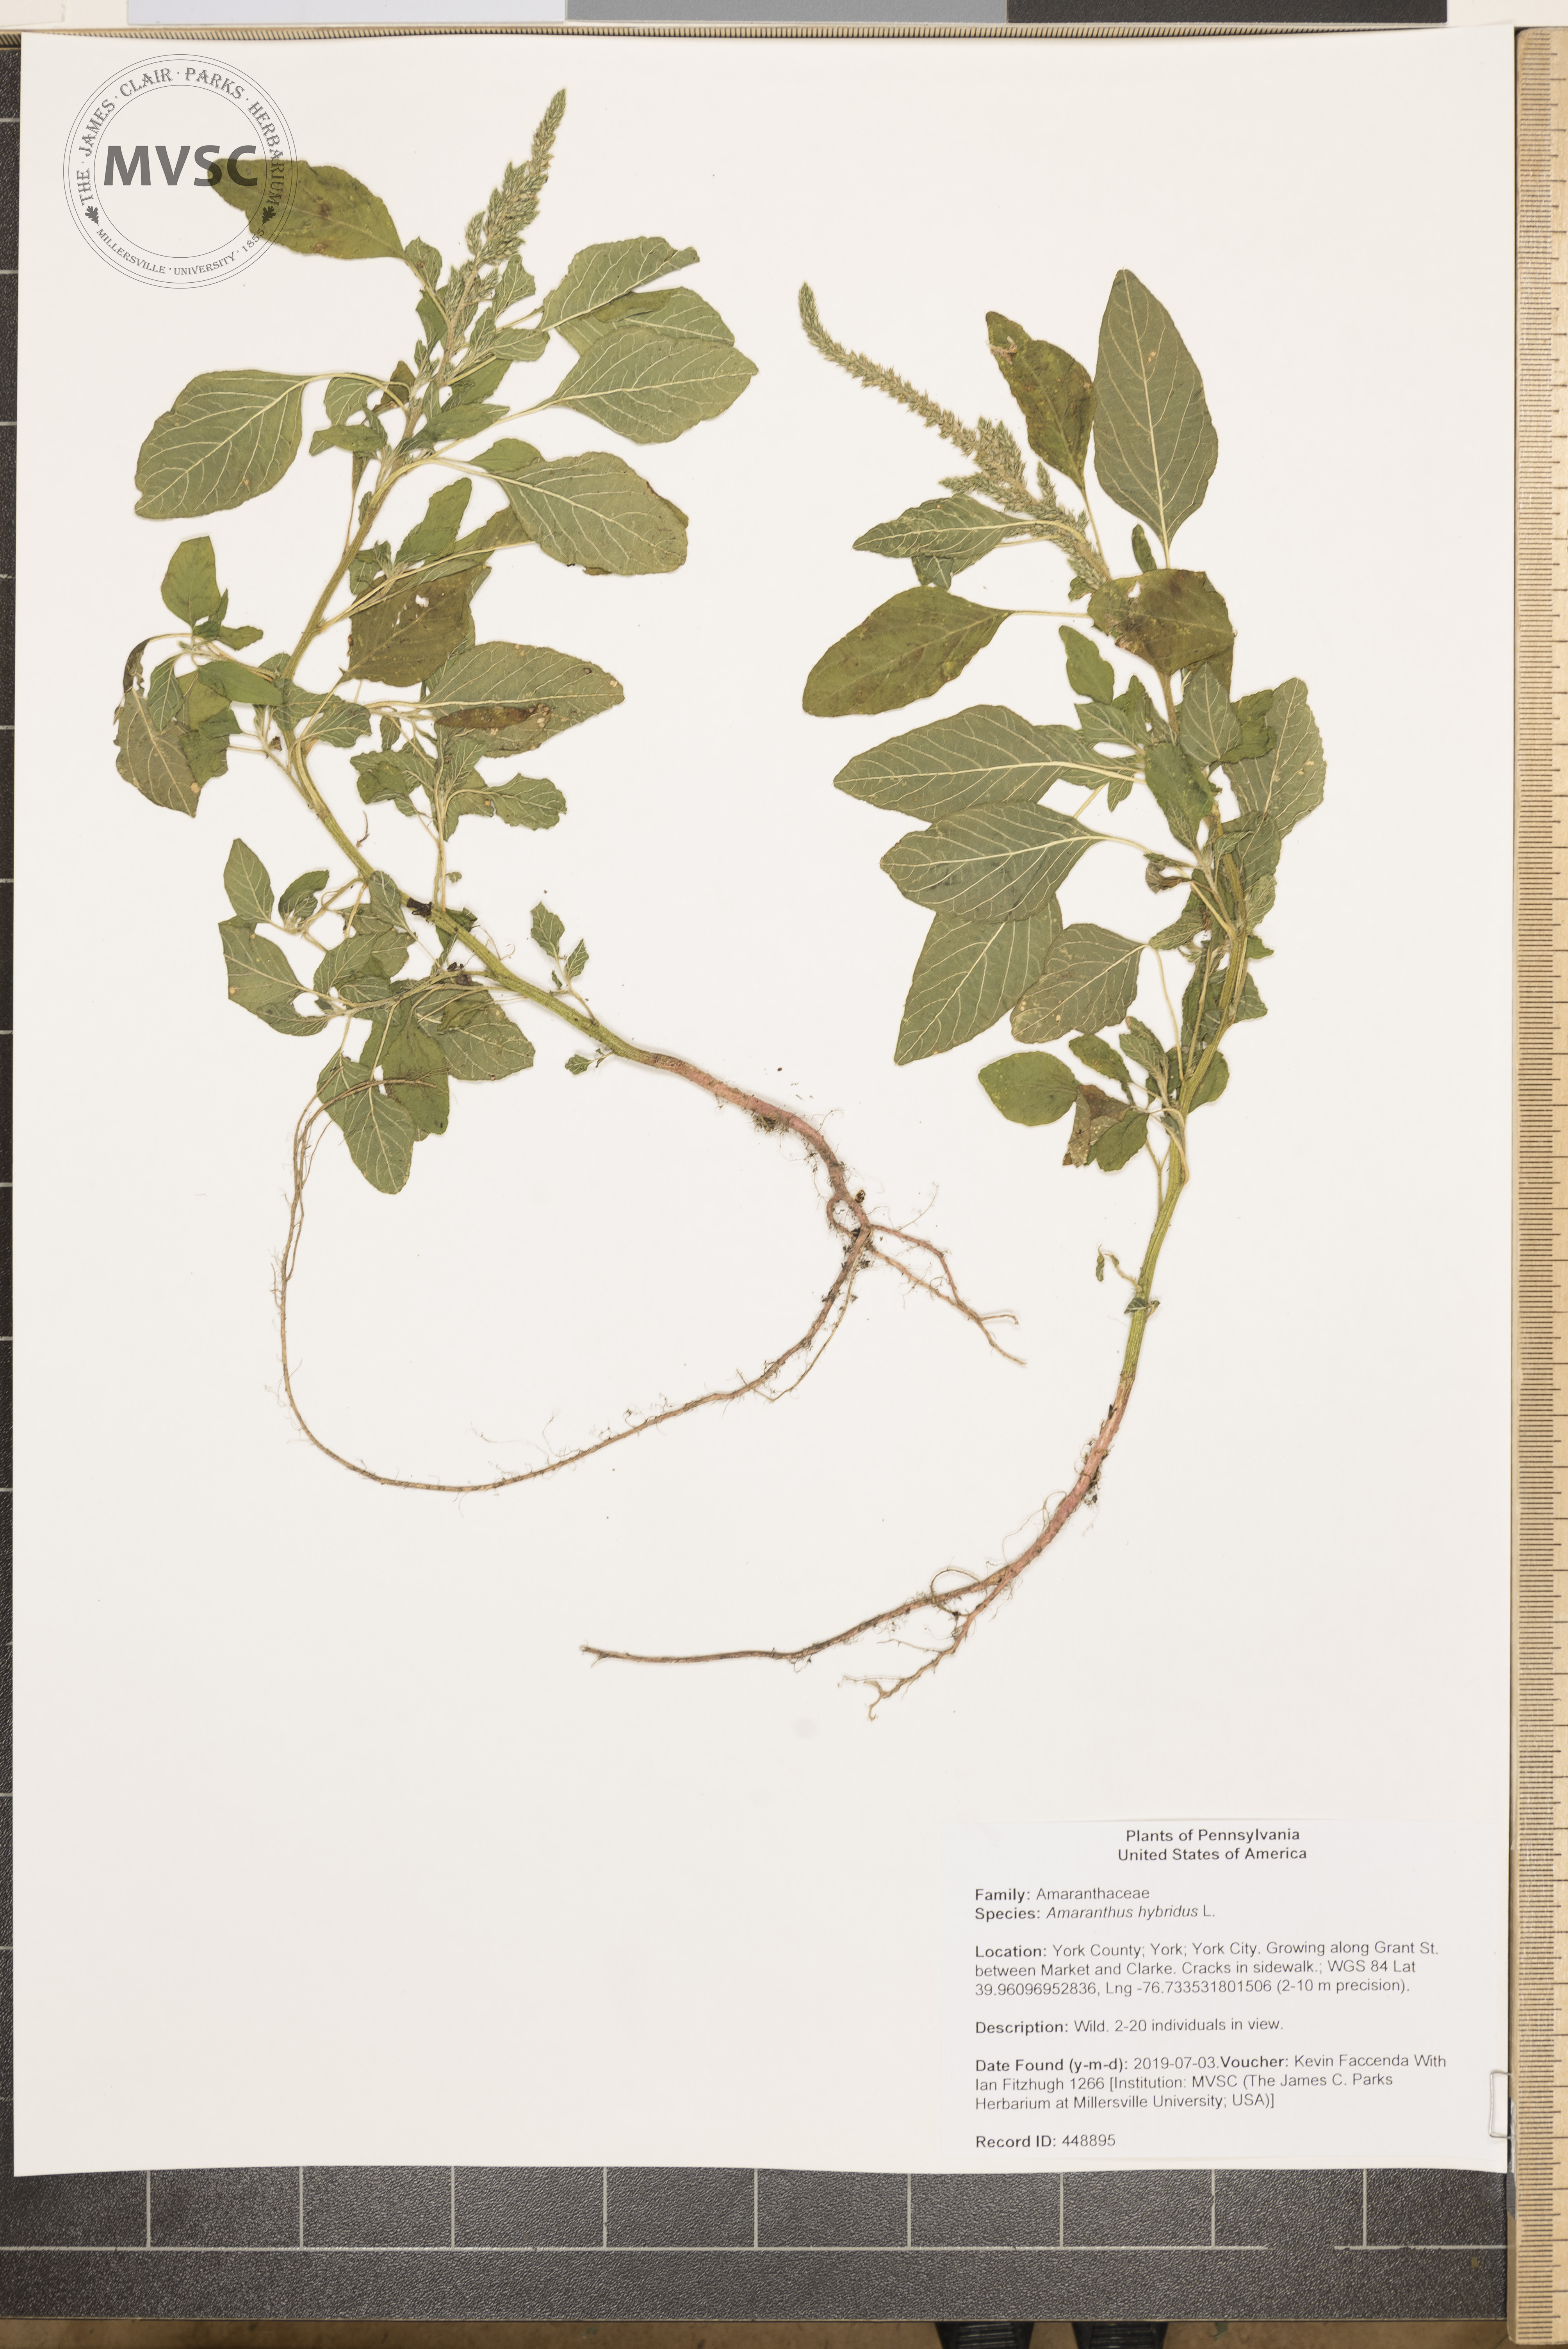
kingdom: Plantae
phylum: Tracheophyta
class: Magnoliopsida
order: Caryophyllales
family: Amaranthaceae
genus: Amaranthus
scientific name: Amaranthus hybridus
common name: Green amaranth
